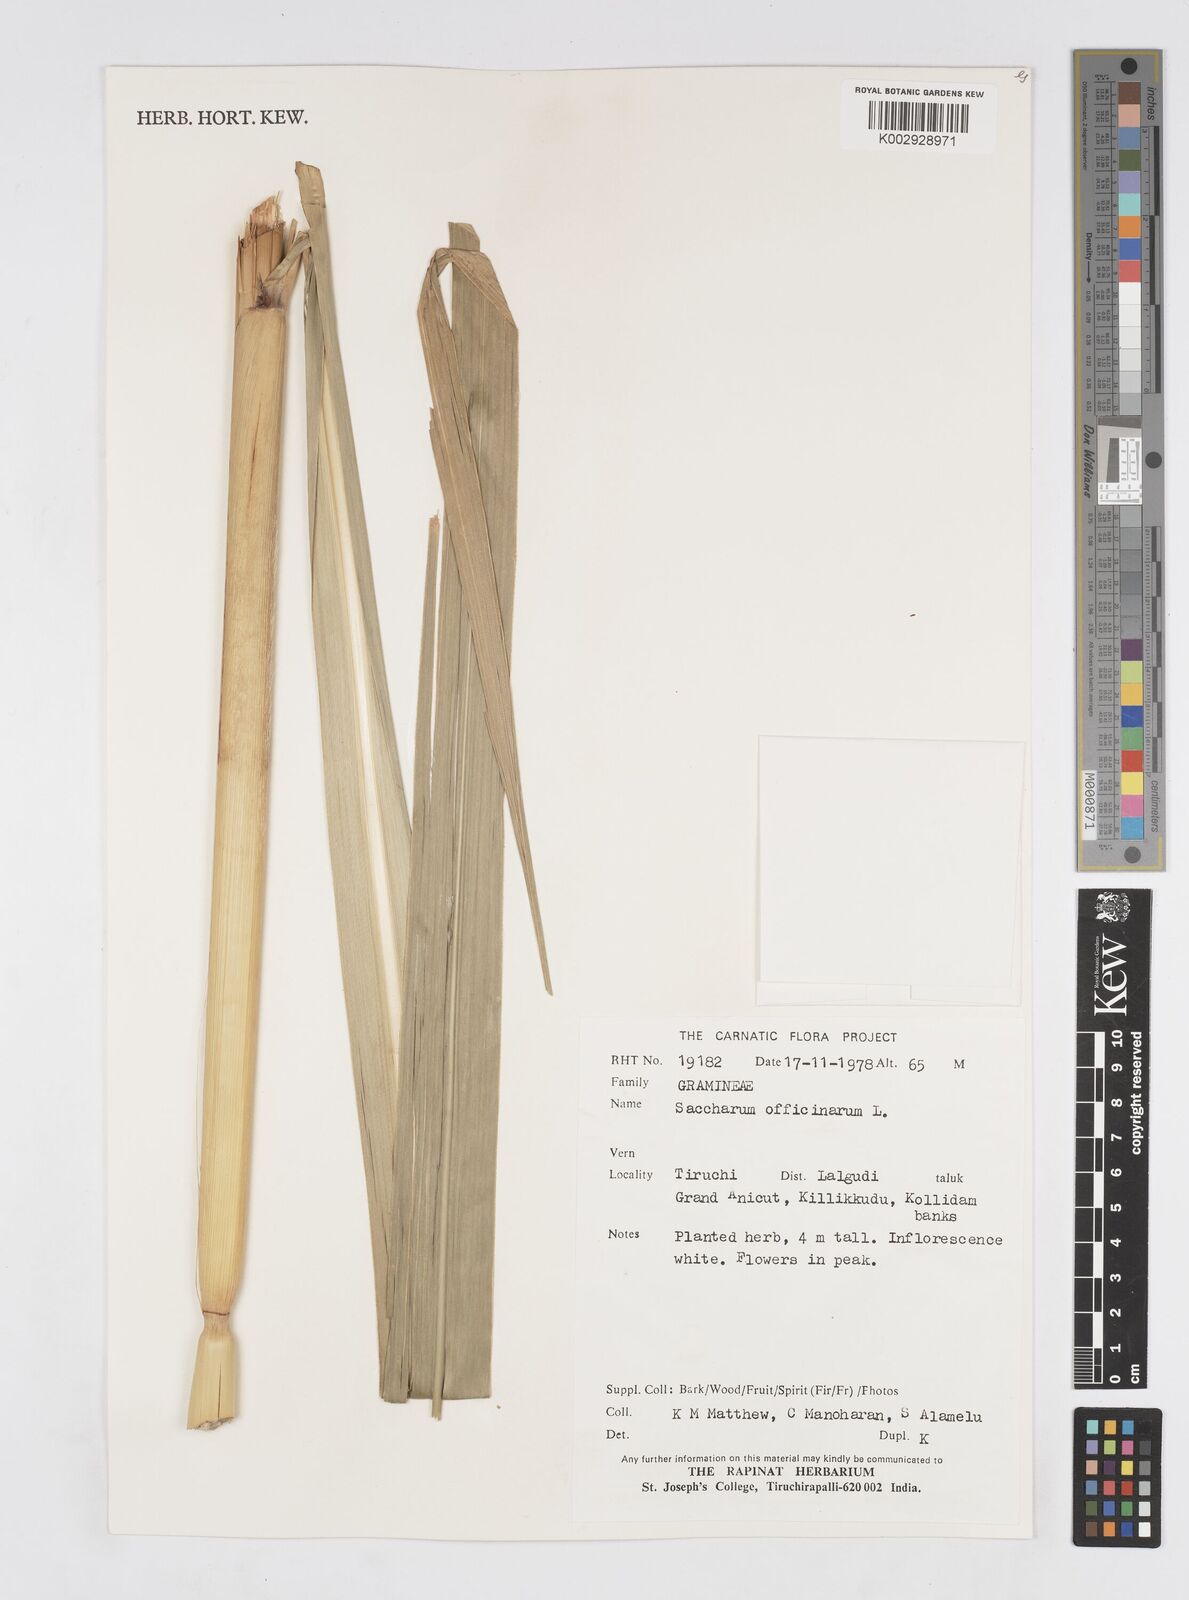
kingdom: Plantae
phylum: Tracheophyta
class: Liliopsida
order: Poales
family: Poaceae
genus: Saccharum
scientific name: Saccharum spontaneum
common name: Wild sugarcane
